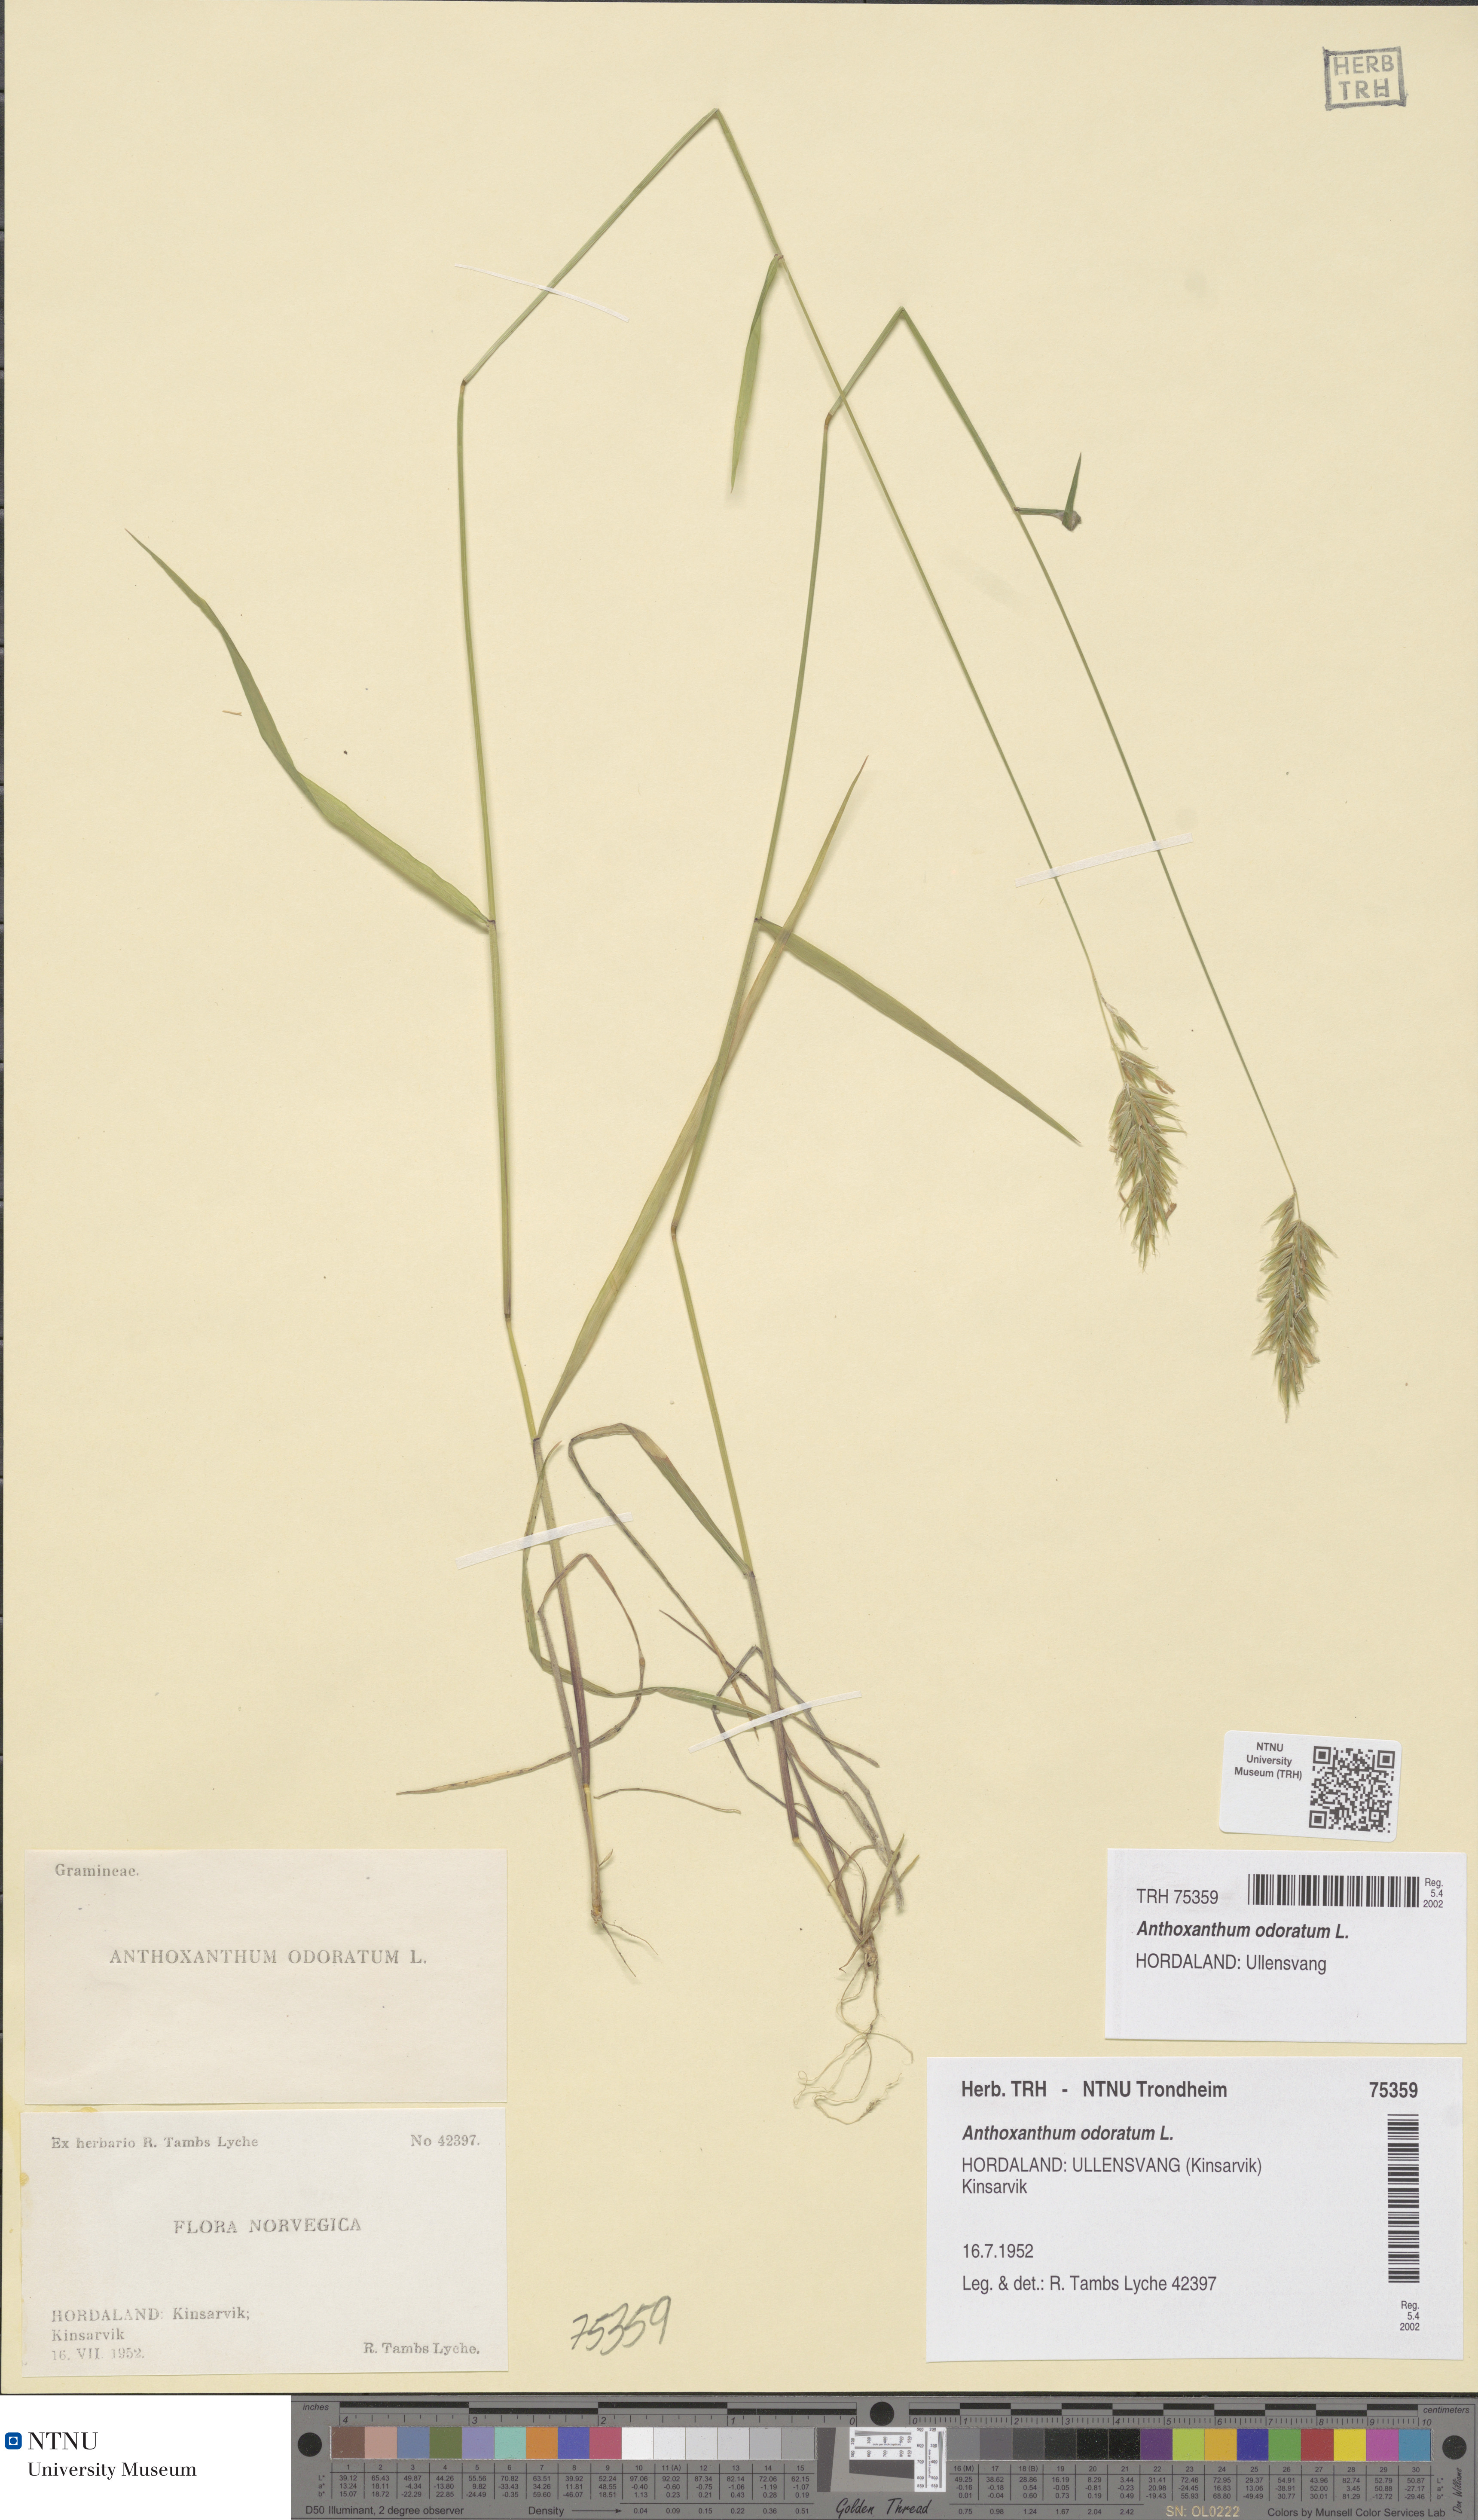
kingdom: Plantae
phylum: Tracheophyta
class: Liliopsida
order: Poales
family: Poaceae
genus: Anthoxanthum
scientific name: Anthoxanthum odoratum
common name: Sweet vernalgrass
